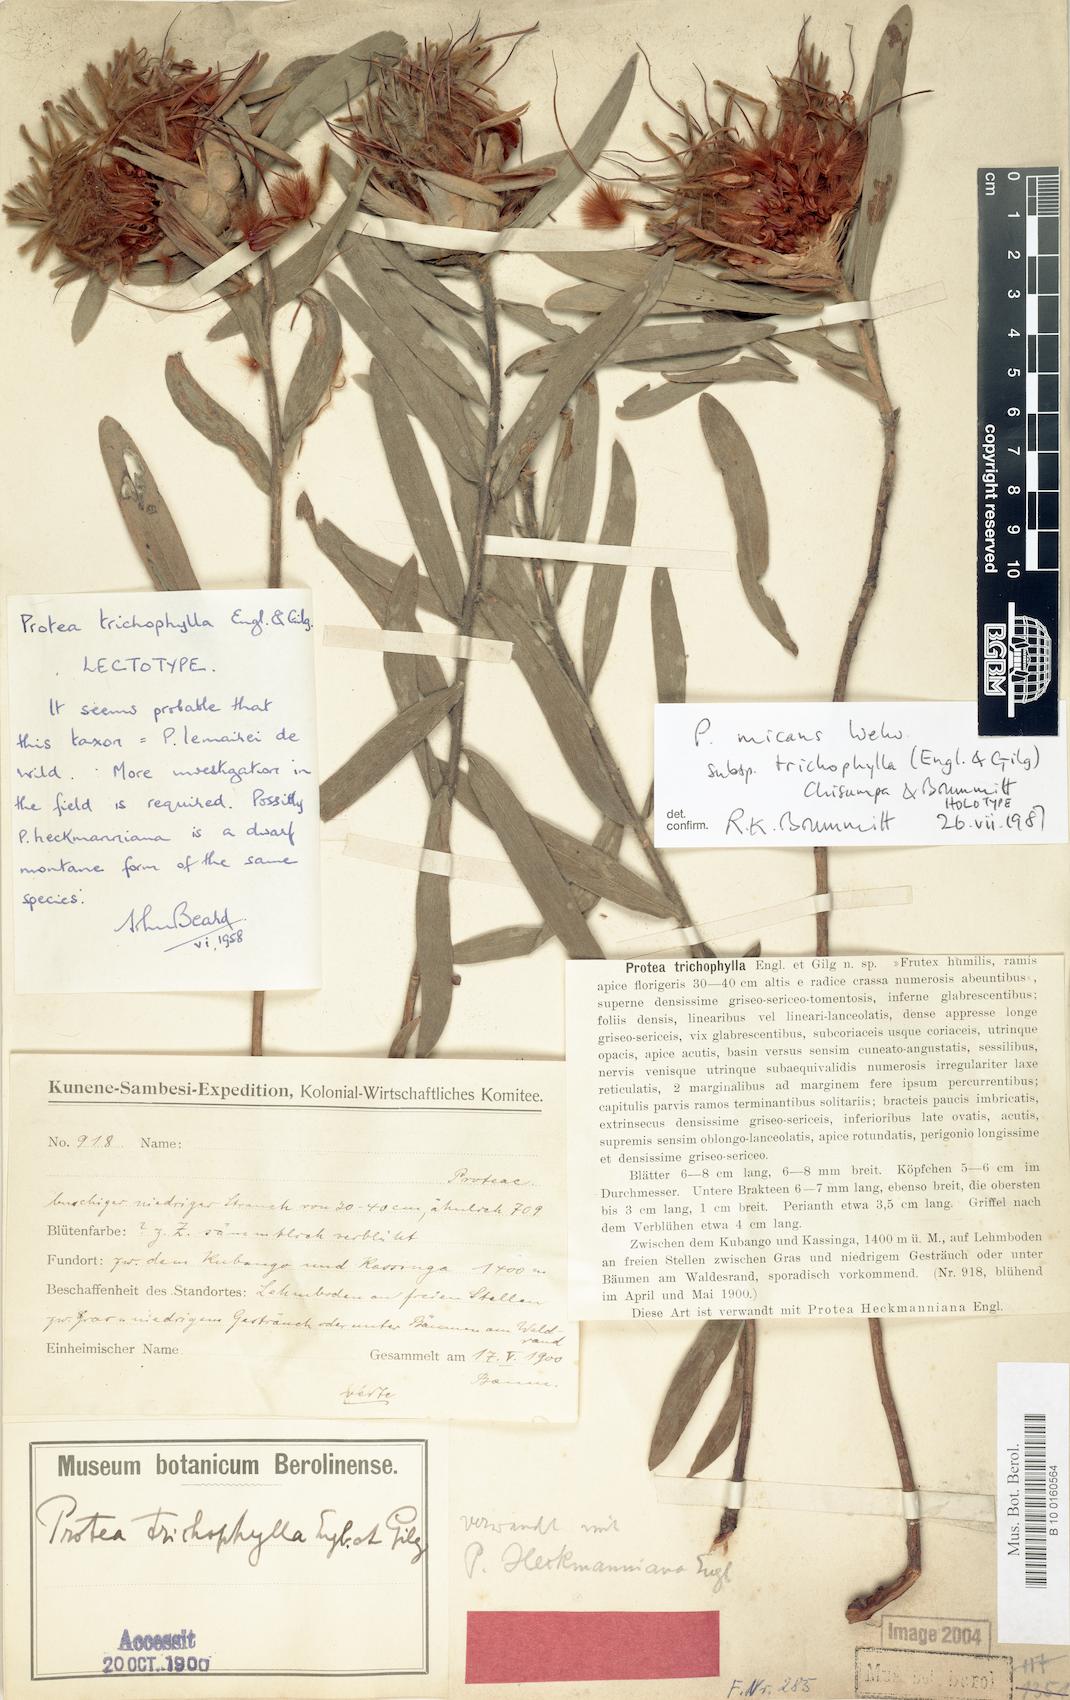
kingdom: Plantae
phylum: Tracheophyta
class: Magnoliopsida
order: Proteales
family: Proteaceae
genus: Protea
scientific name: Protea micans
